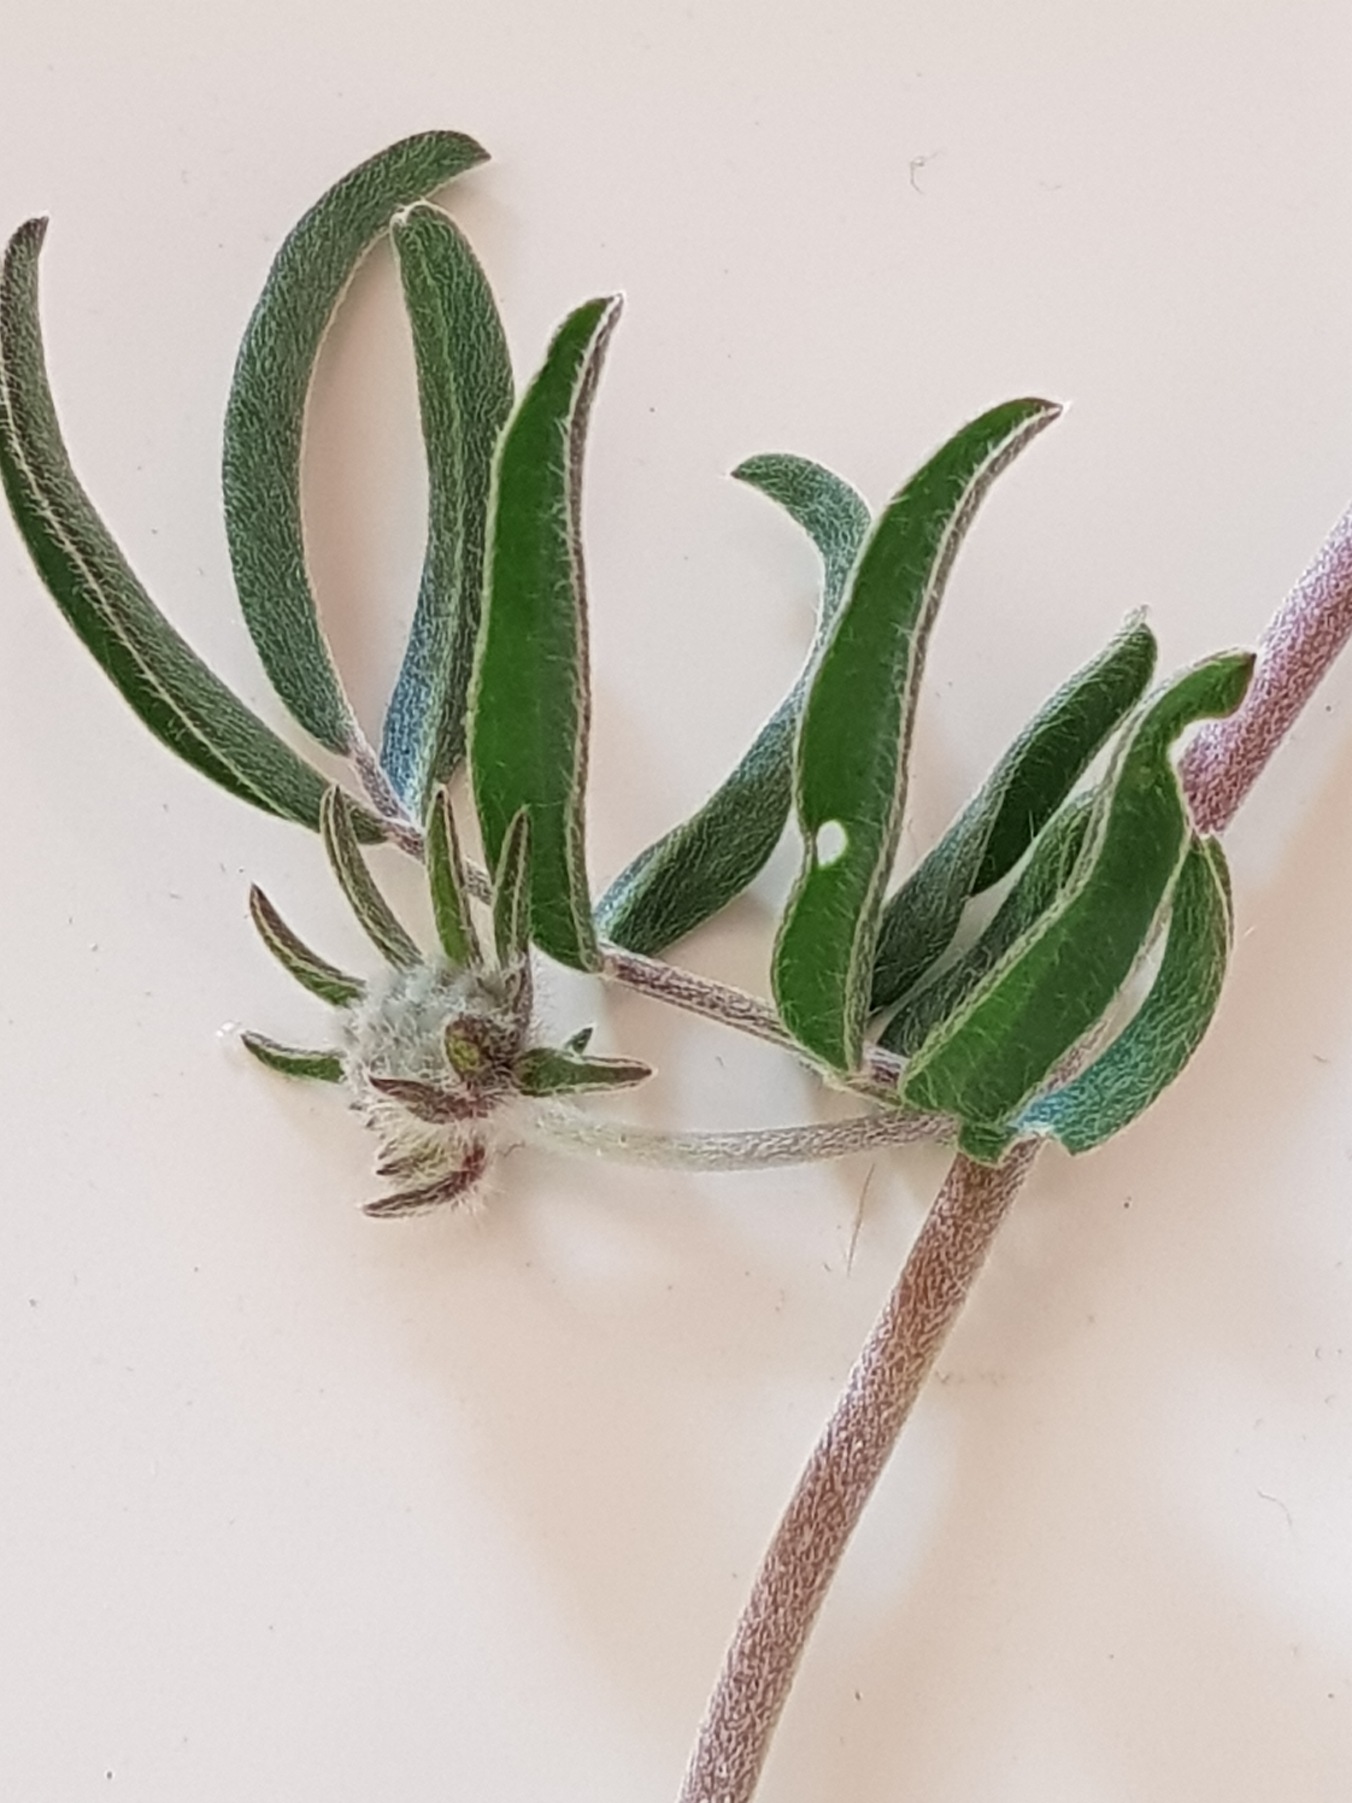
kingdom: Plantae
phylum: Tracheophyta
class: Magnoliopsida
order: Fabales
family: Fabaceae
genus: Anthyllis
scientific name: Anthyllis vulneraria
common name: Rundbælg
